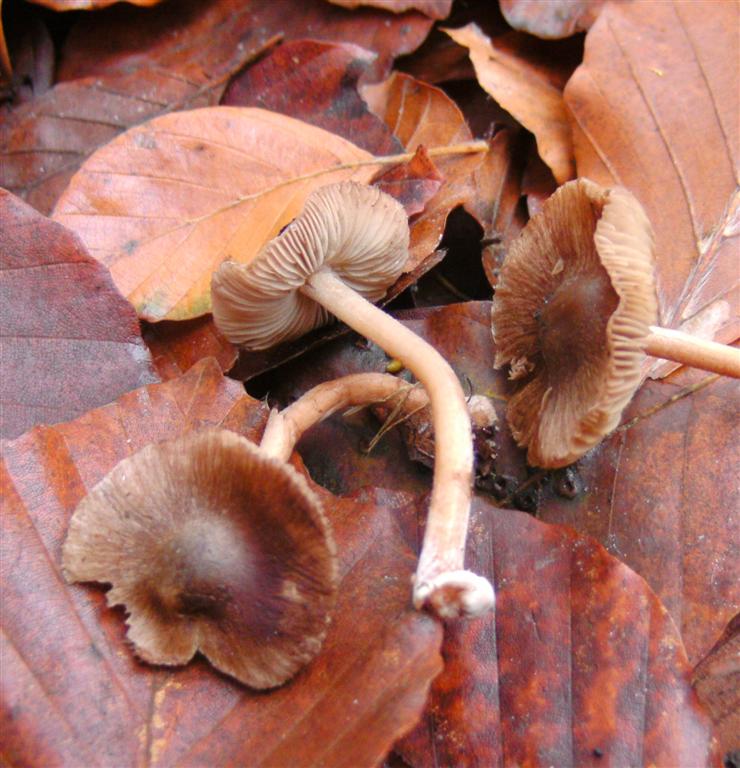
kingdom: Fungi
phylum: Basidiomycota
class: Agaricomycetes
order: Agaricales
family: Inocybaceae
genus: Inocybe
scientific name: Inocybe napipes
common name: roeknoldet trævlhat
